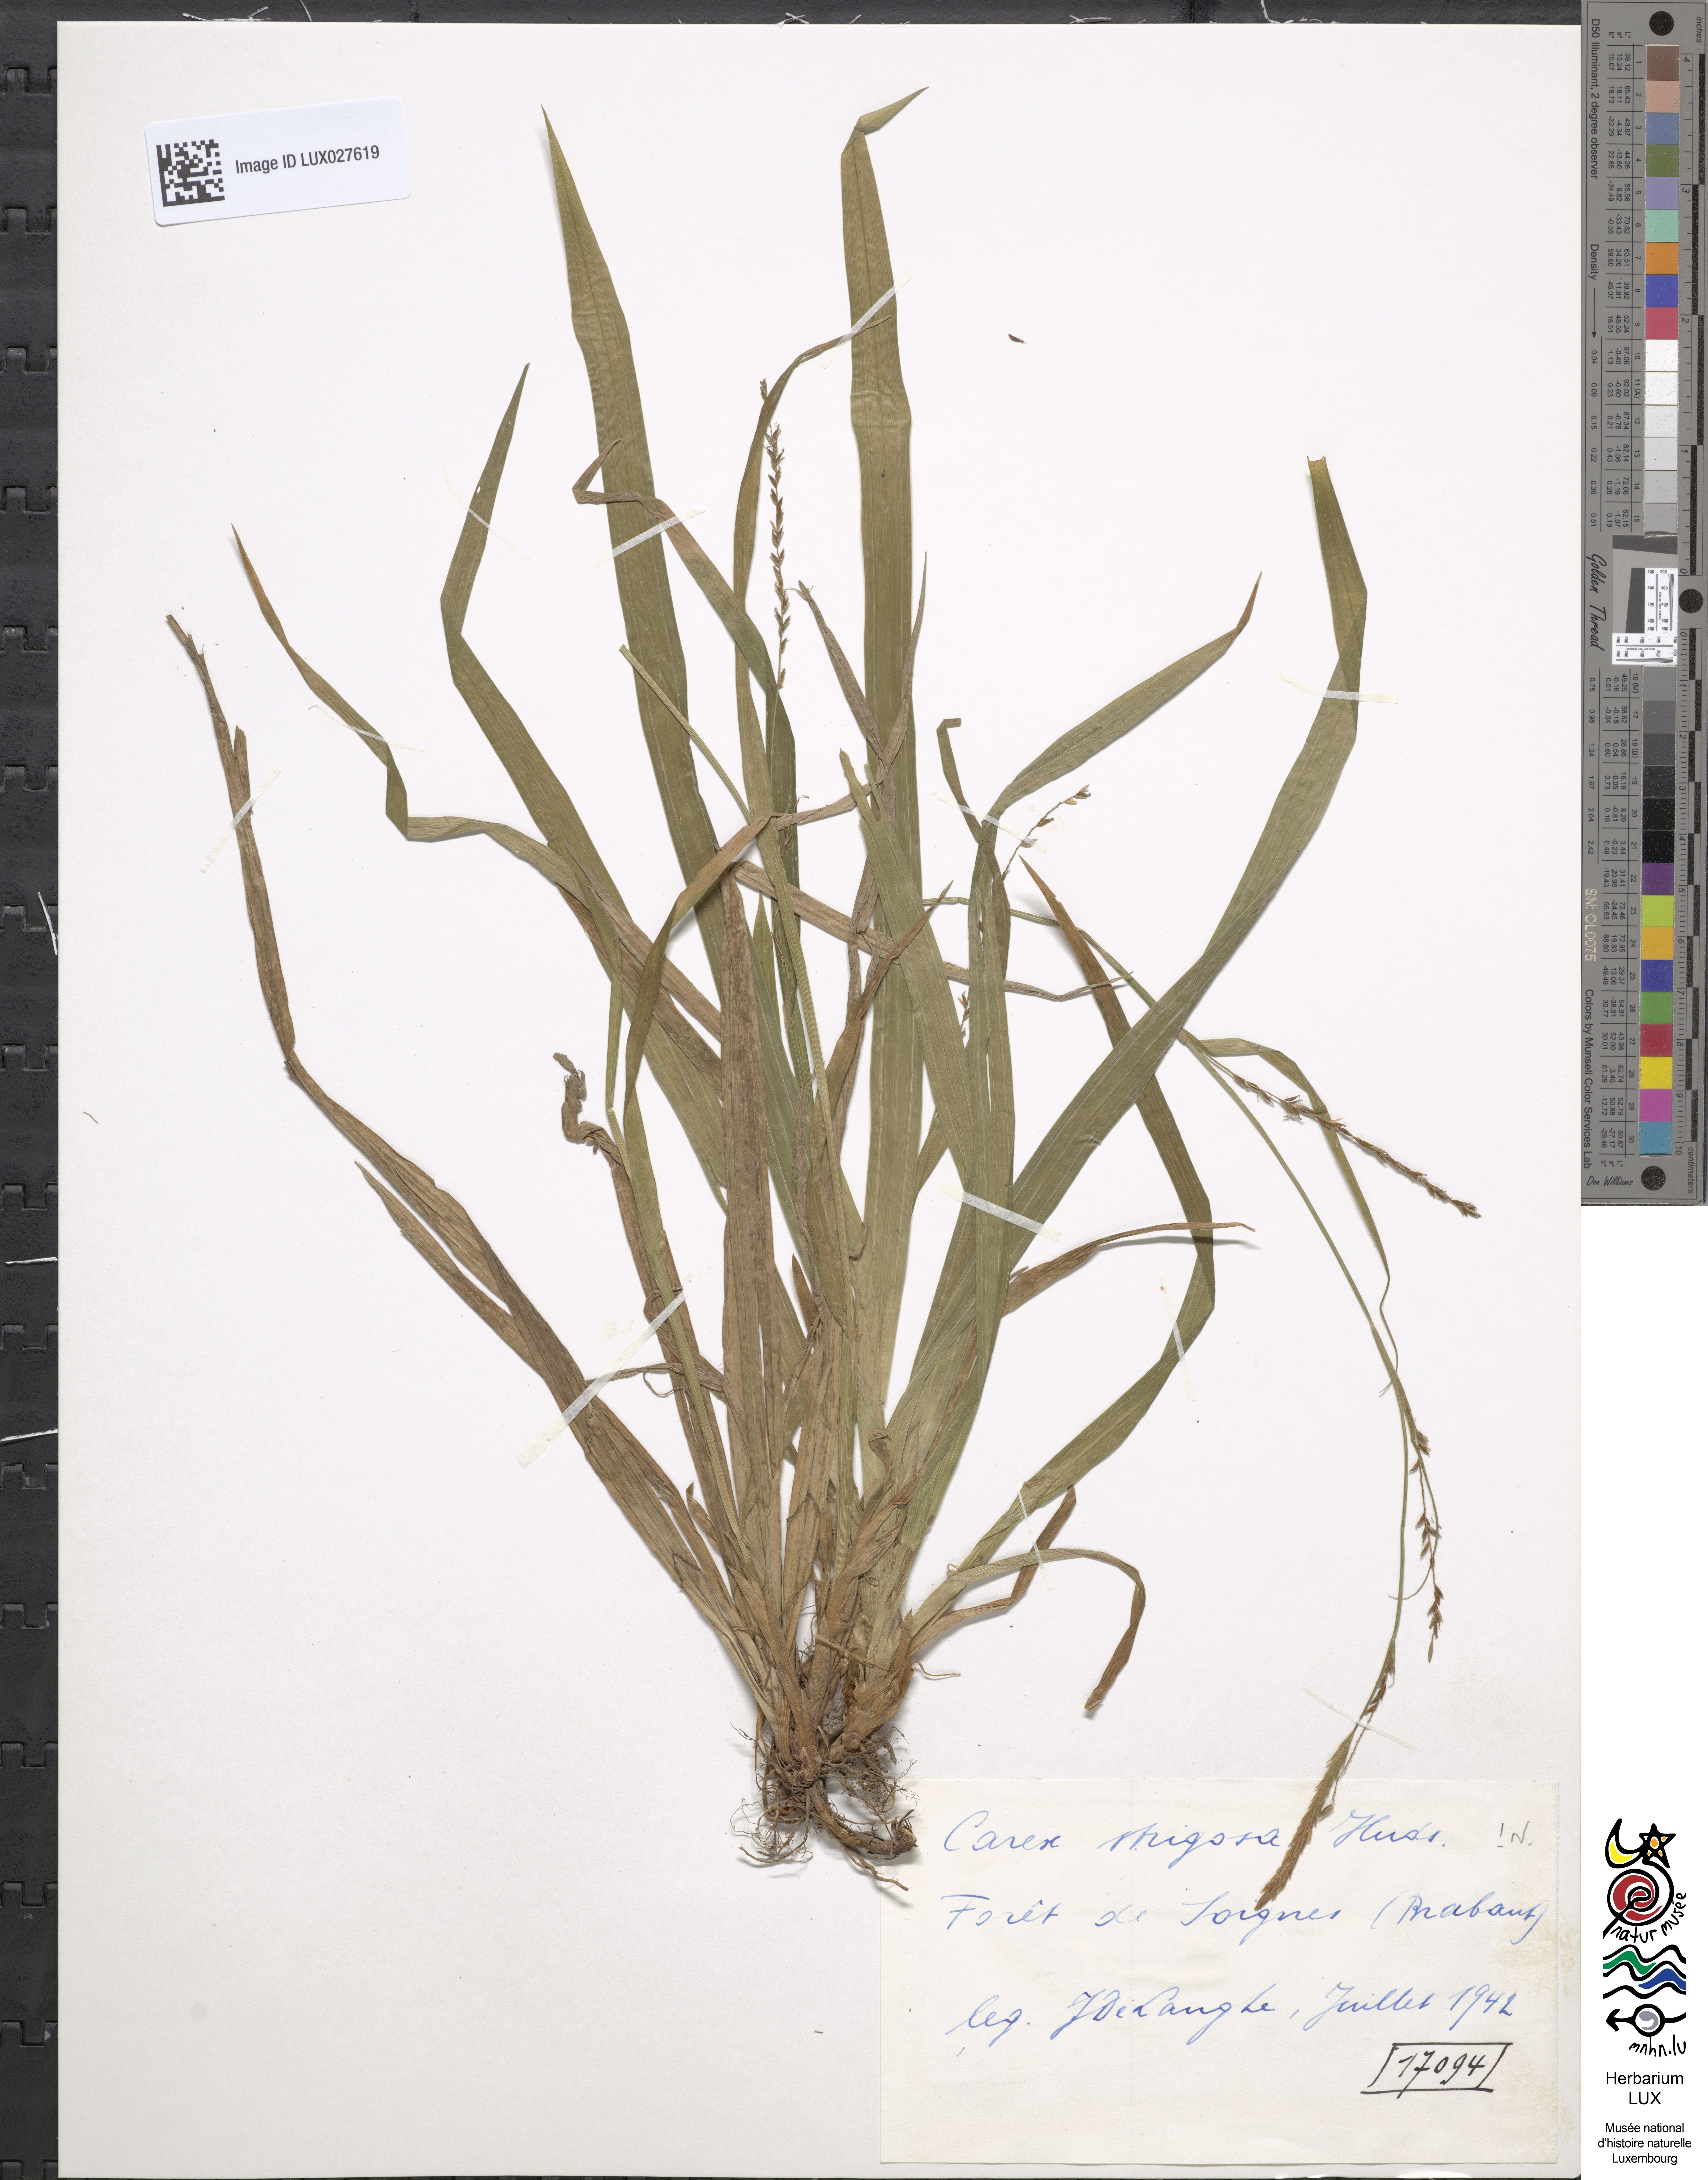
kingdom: Plantae
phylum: Tracheophyta
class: Liliopsida
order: Poales
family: Cyperaceae
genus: Carex
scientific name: Carex strigosa
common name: Thin-spiked wood-sedge
